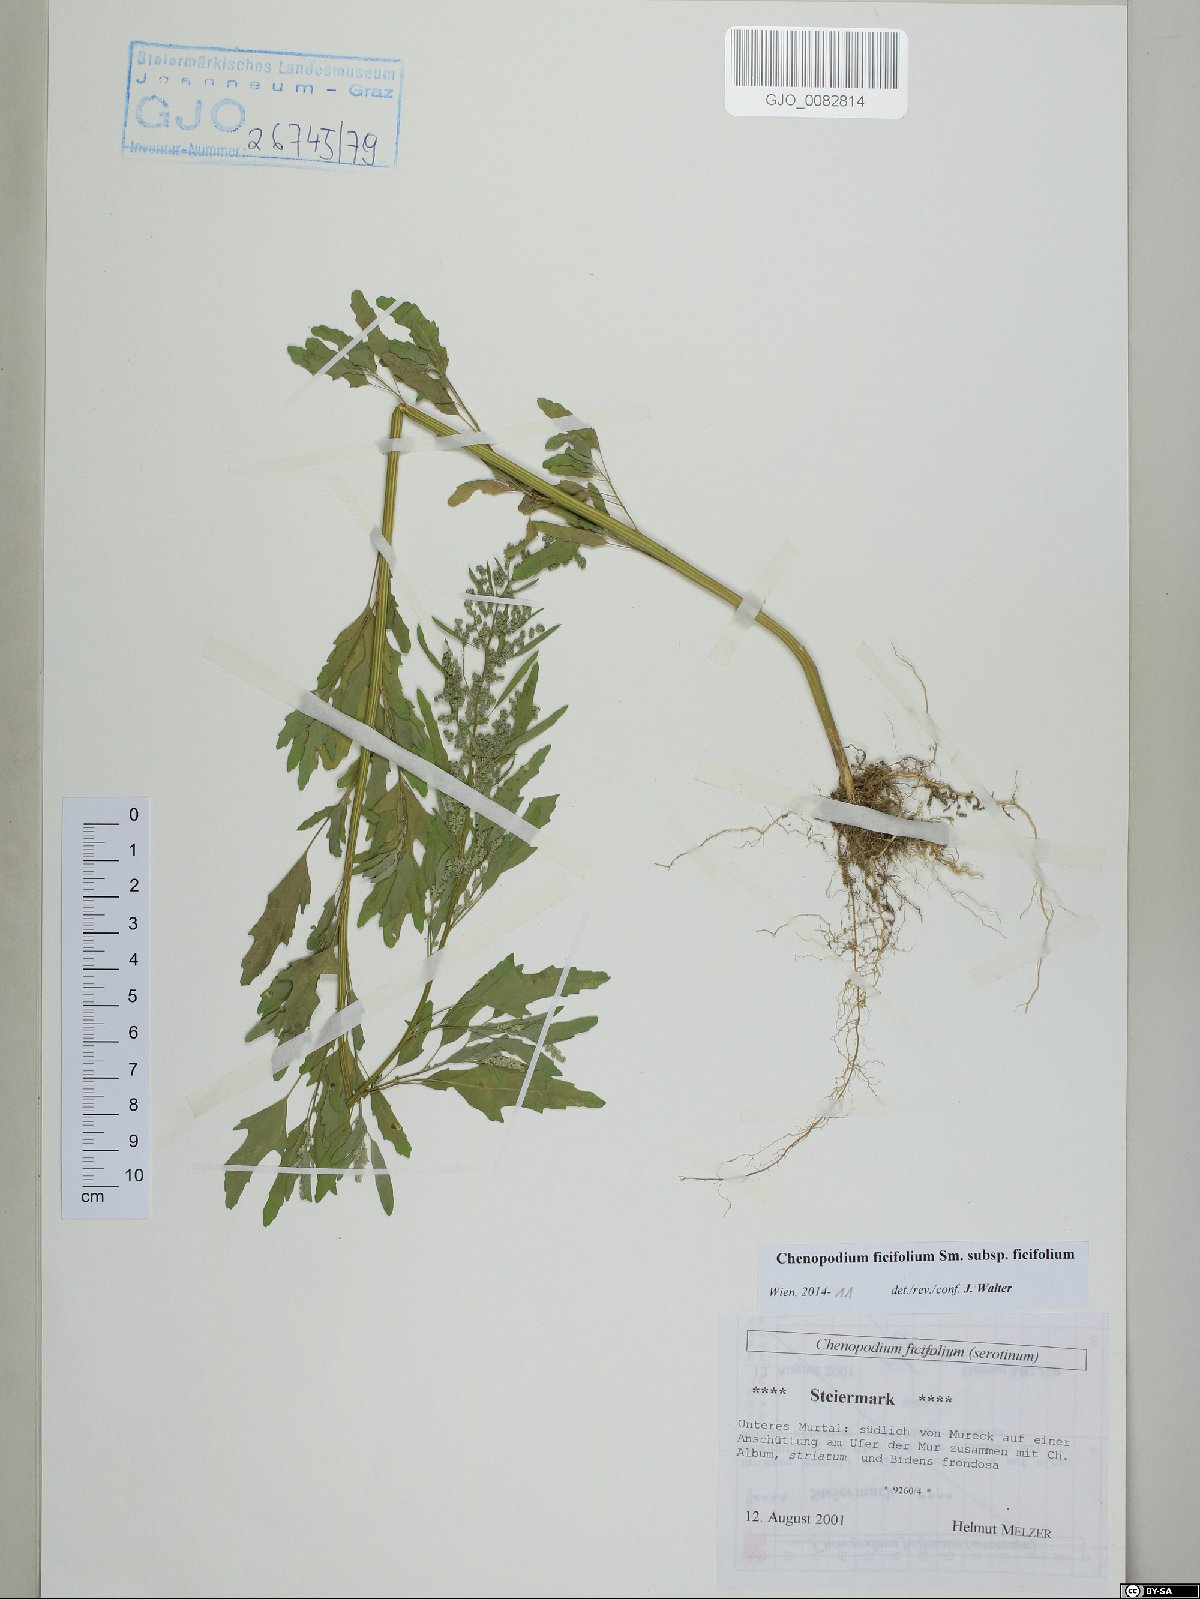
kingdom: Plantae
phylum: Tracheophyta
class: Magnoliopsida
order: Caryophyllales
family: Amaranthaceae
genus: Chenopodium
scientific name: Chenopodium ficifolium
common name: Fig-leaved goosefoot
